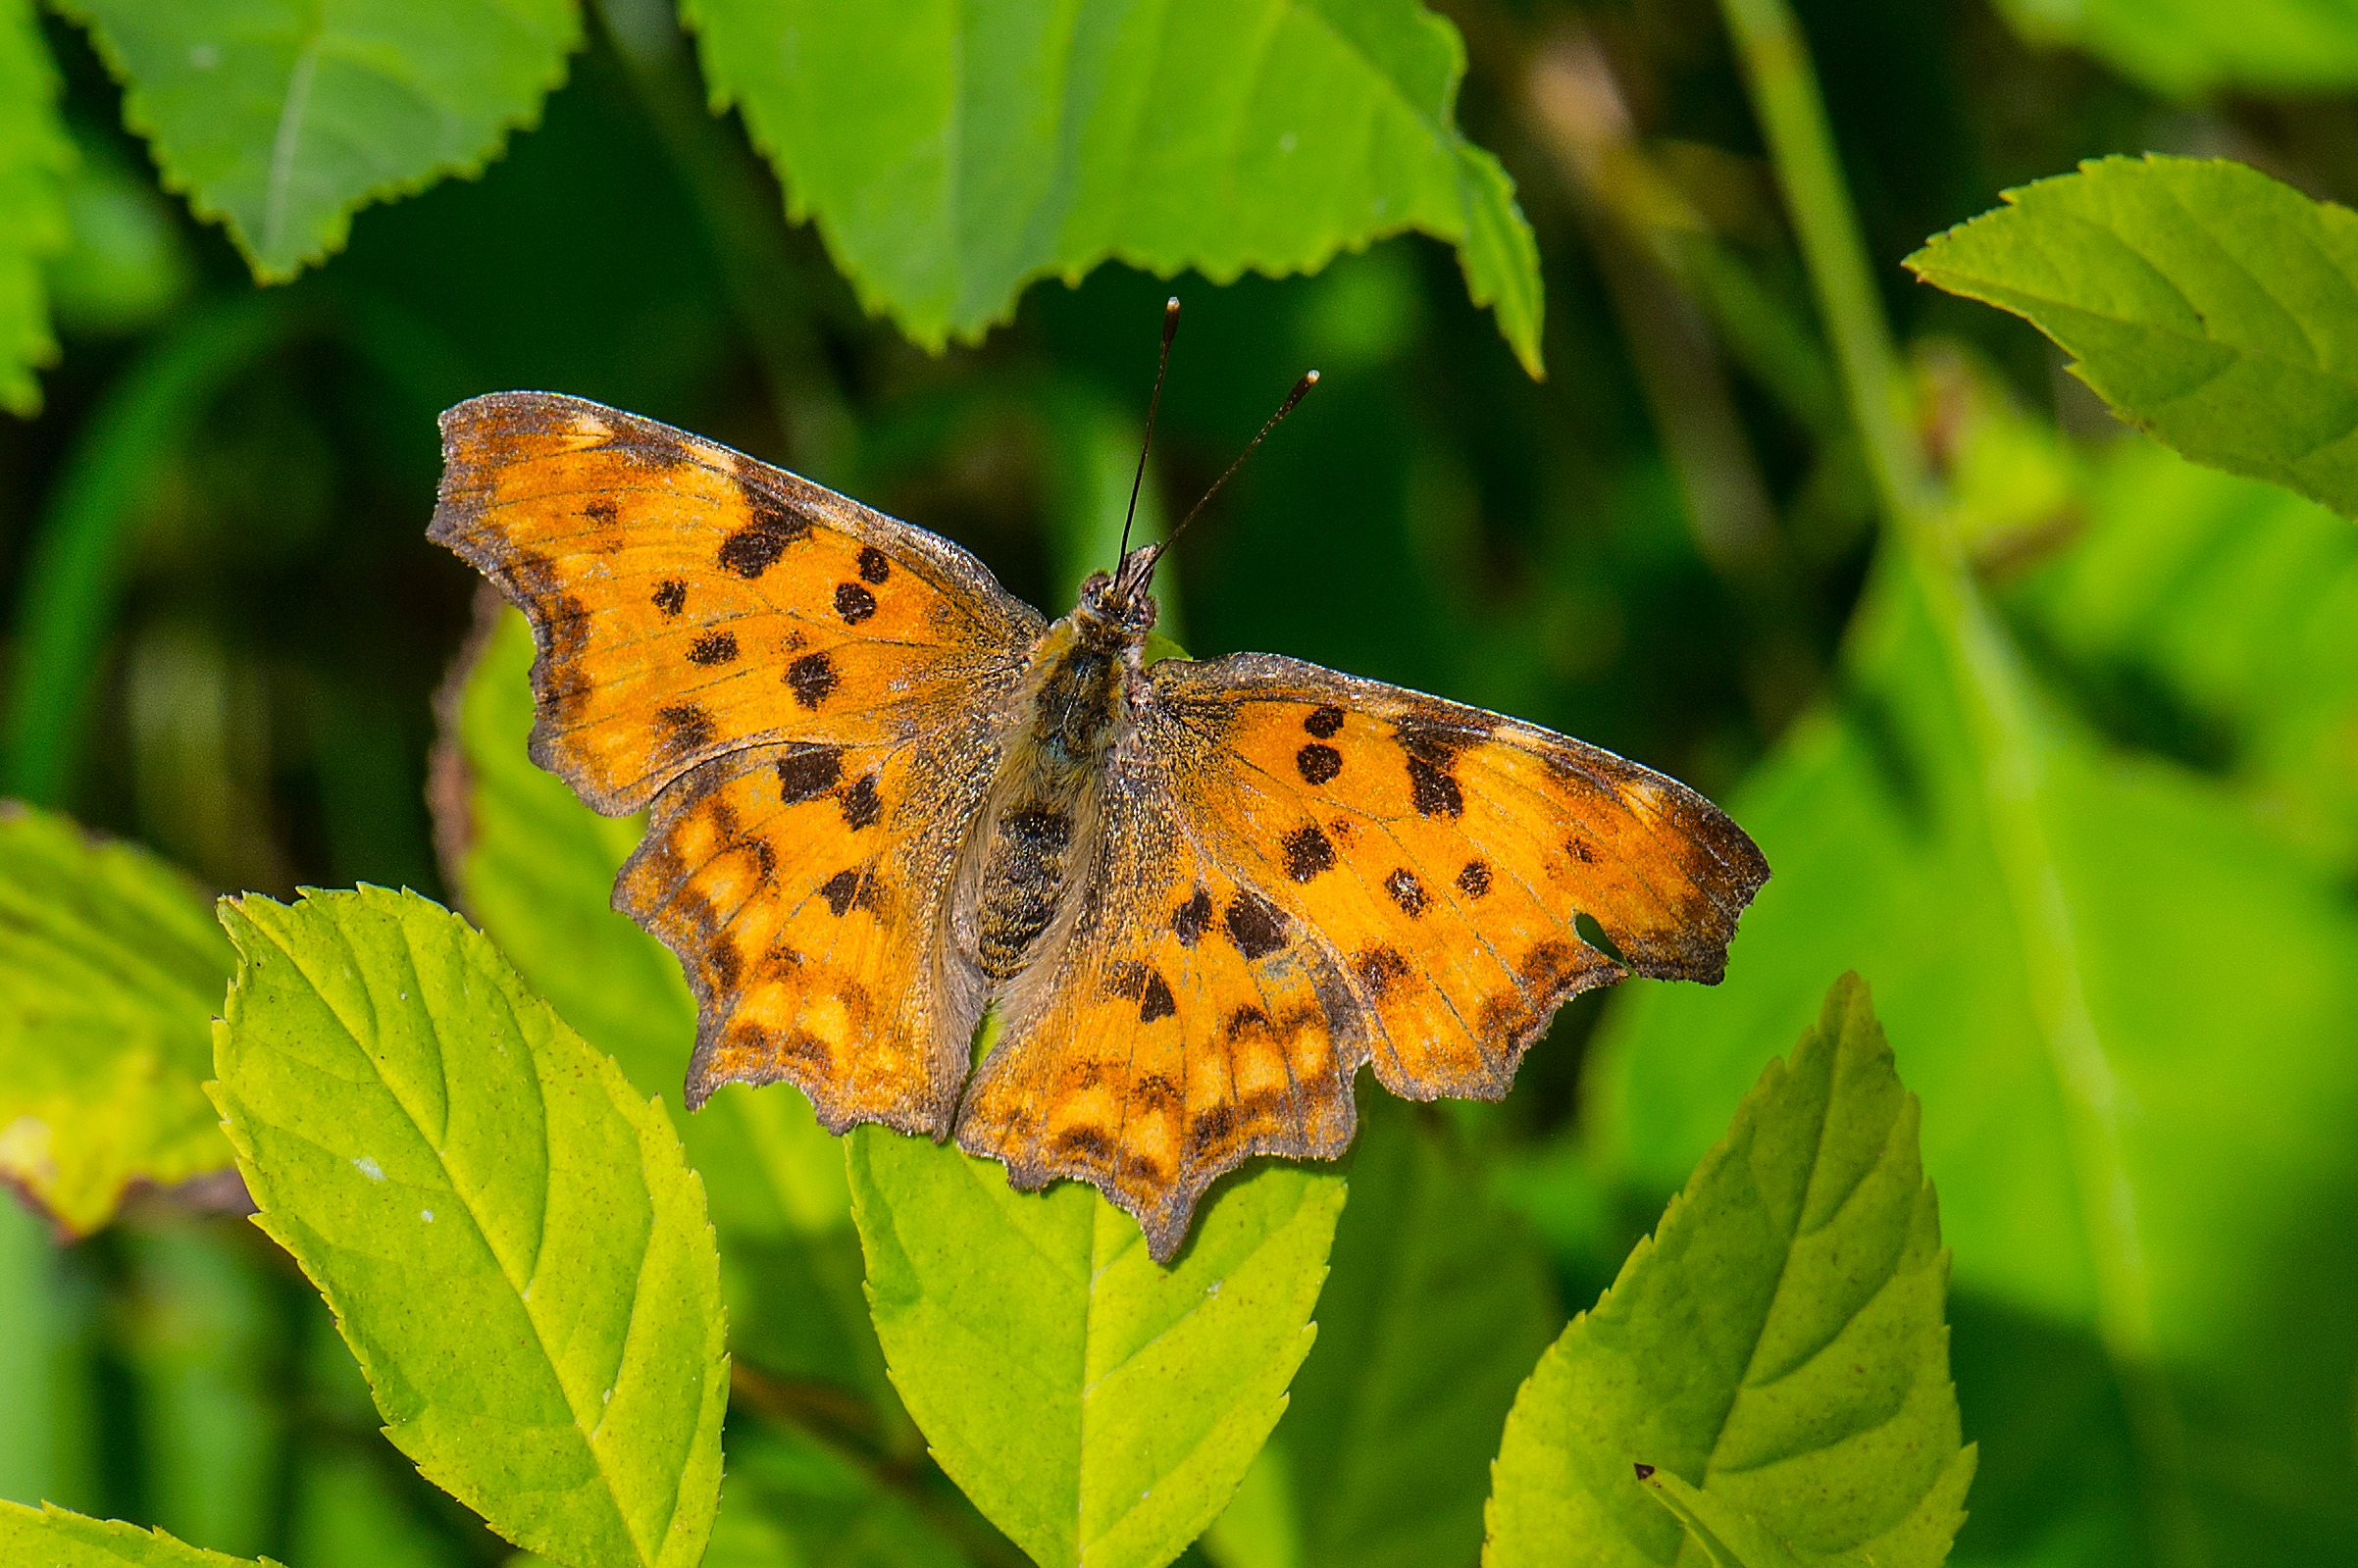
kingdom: Animalia
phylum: Arthropoda
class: Insecta
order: Lepidoptera
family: Nymphalidae
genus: Polygonia
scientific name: Polygonia c-album
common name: Det hvide C
